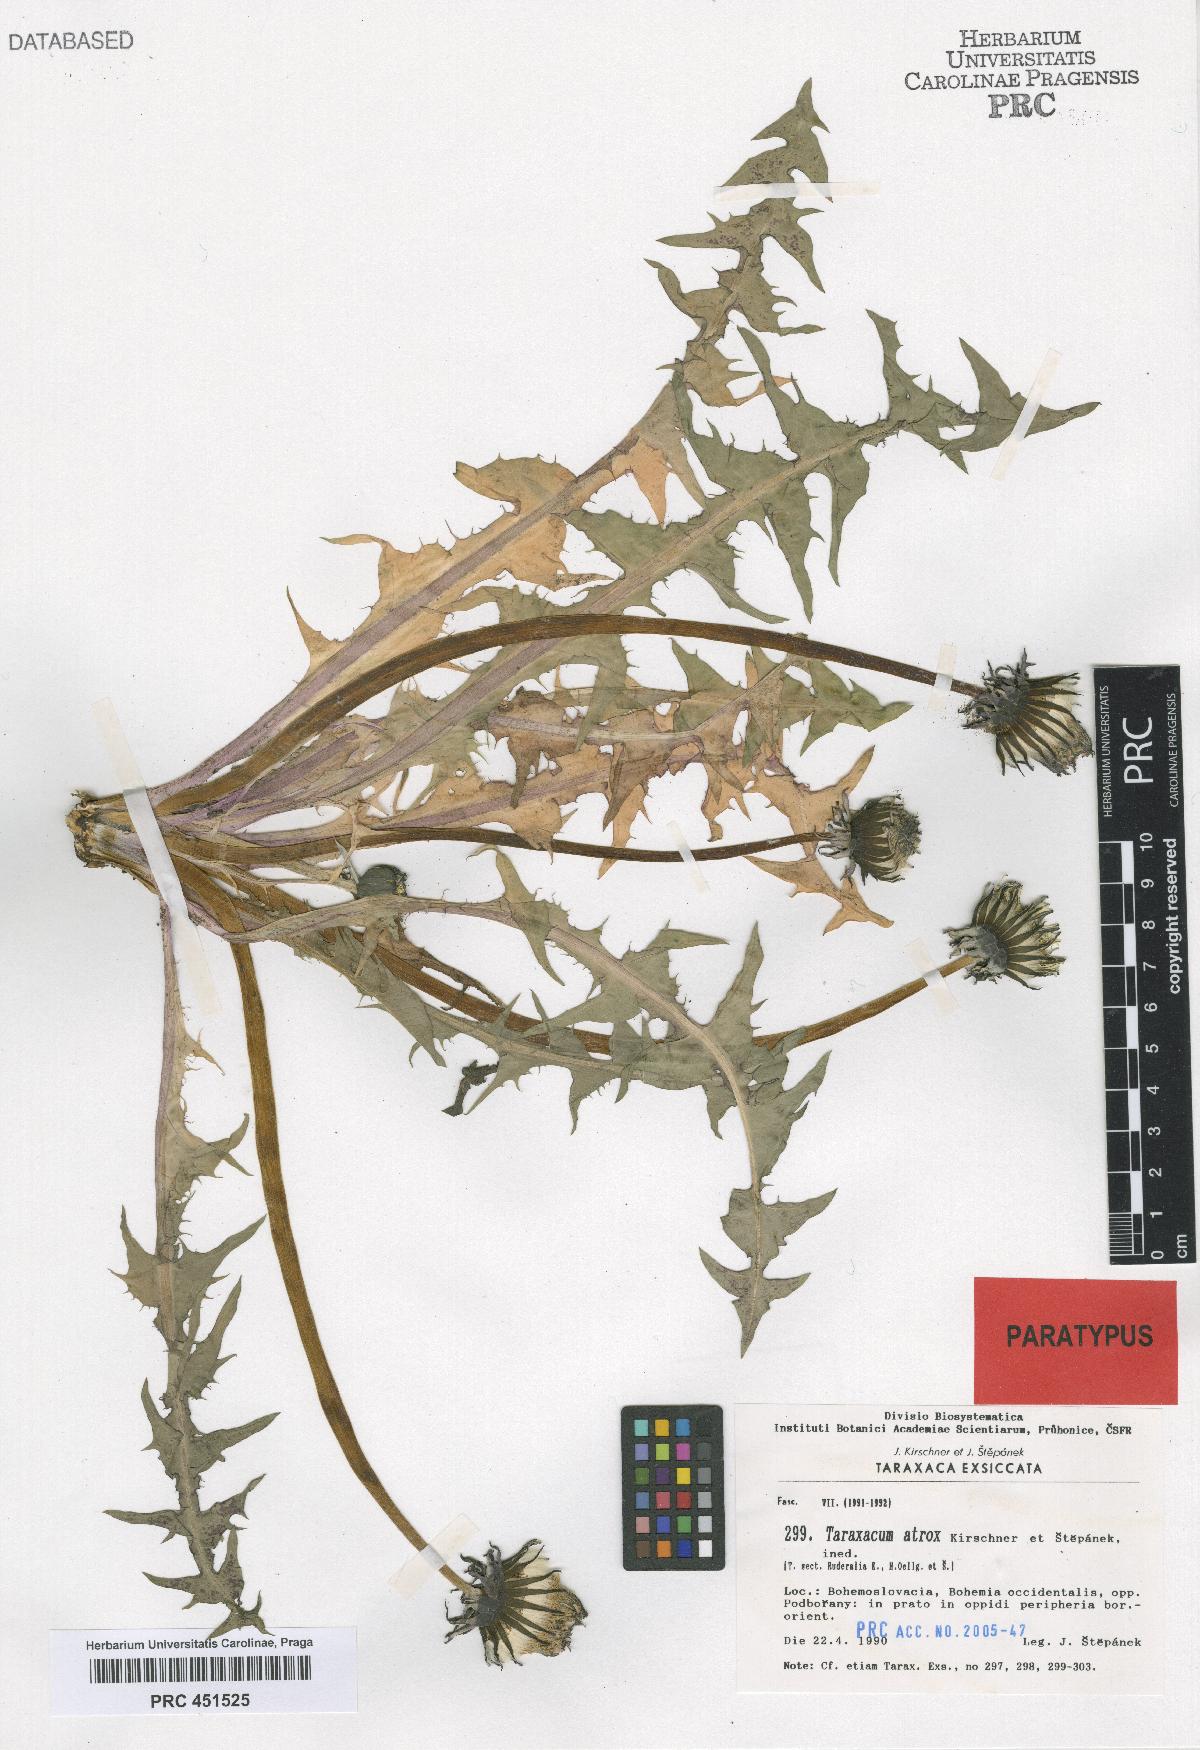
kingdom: Plantae
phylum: Tracheophyta
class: Magnoliopsida
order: Asterales
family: Asteraceae
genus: Taraxacum
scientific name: Taraxacum atrox
